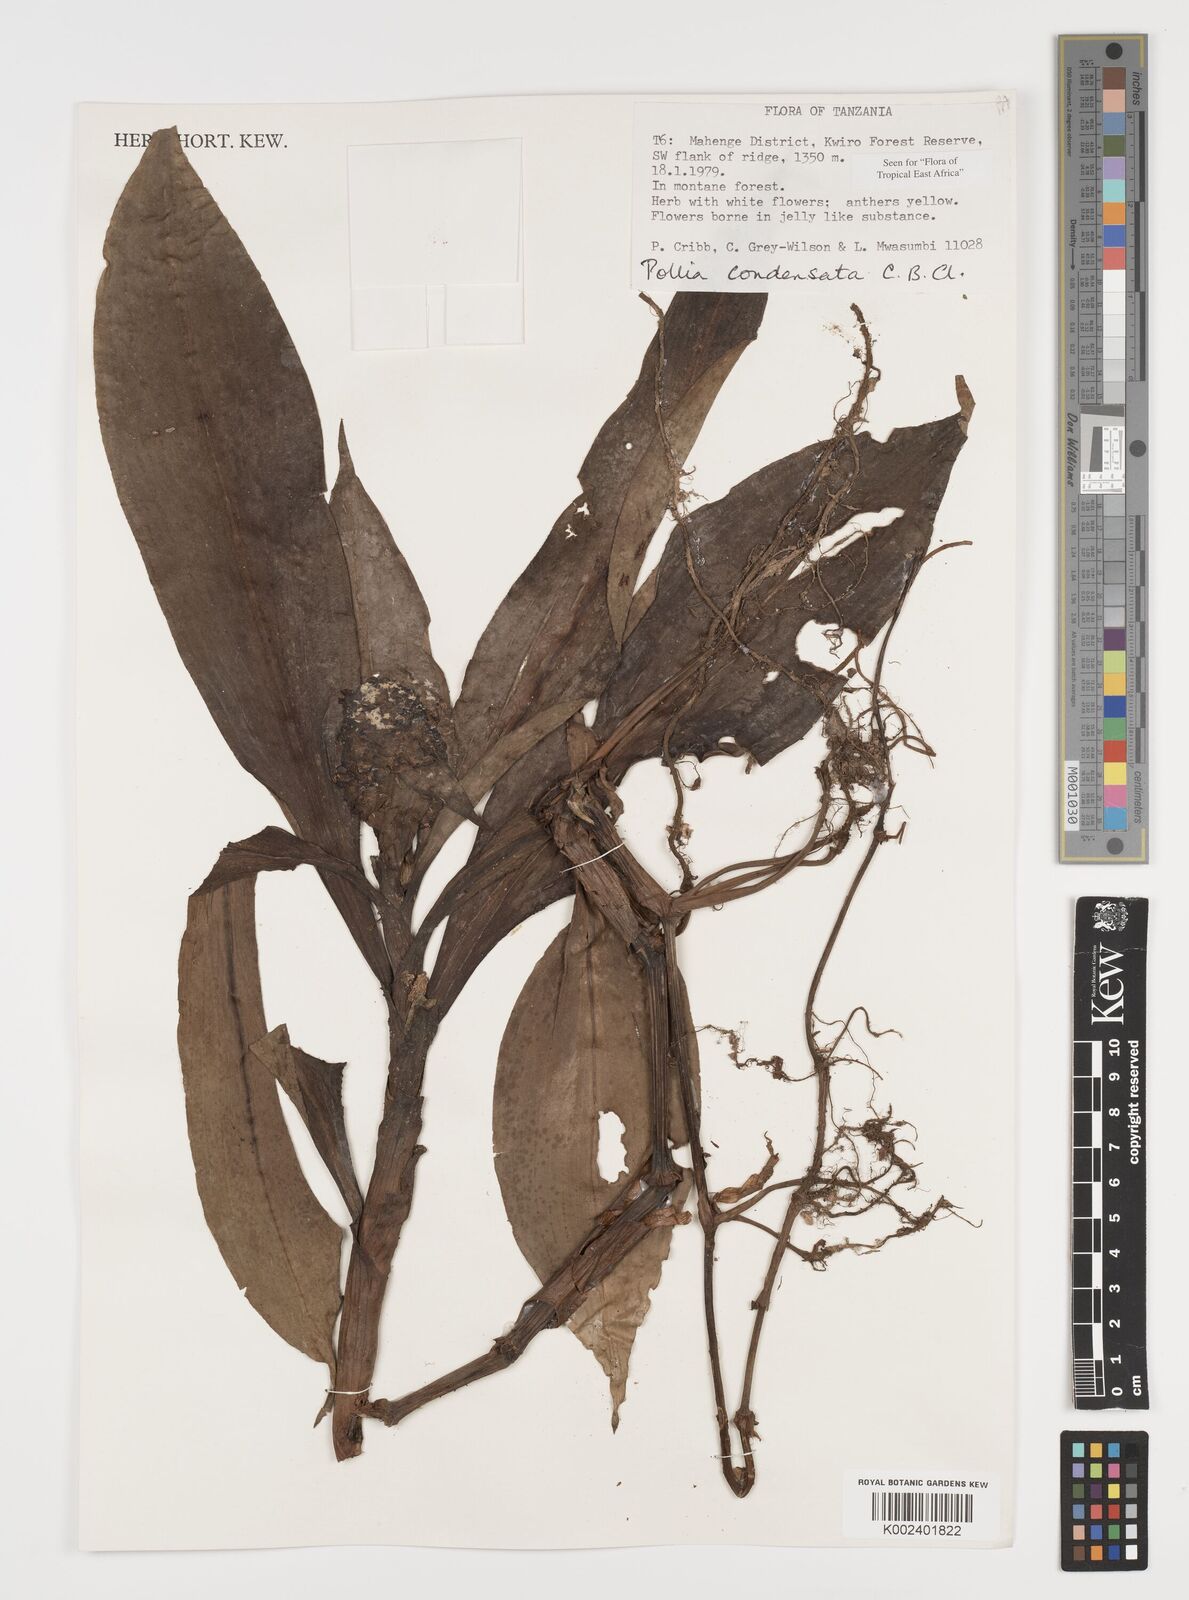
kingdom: Plantae
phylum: Tracheophyta
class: Liliopsida
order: Commelinales
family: Commelinaceae
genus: Pollia
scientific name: Pollia condensata
